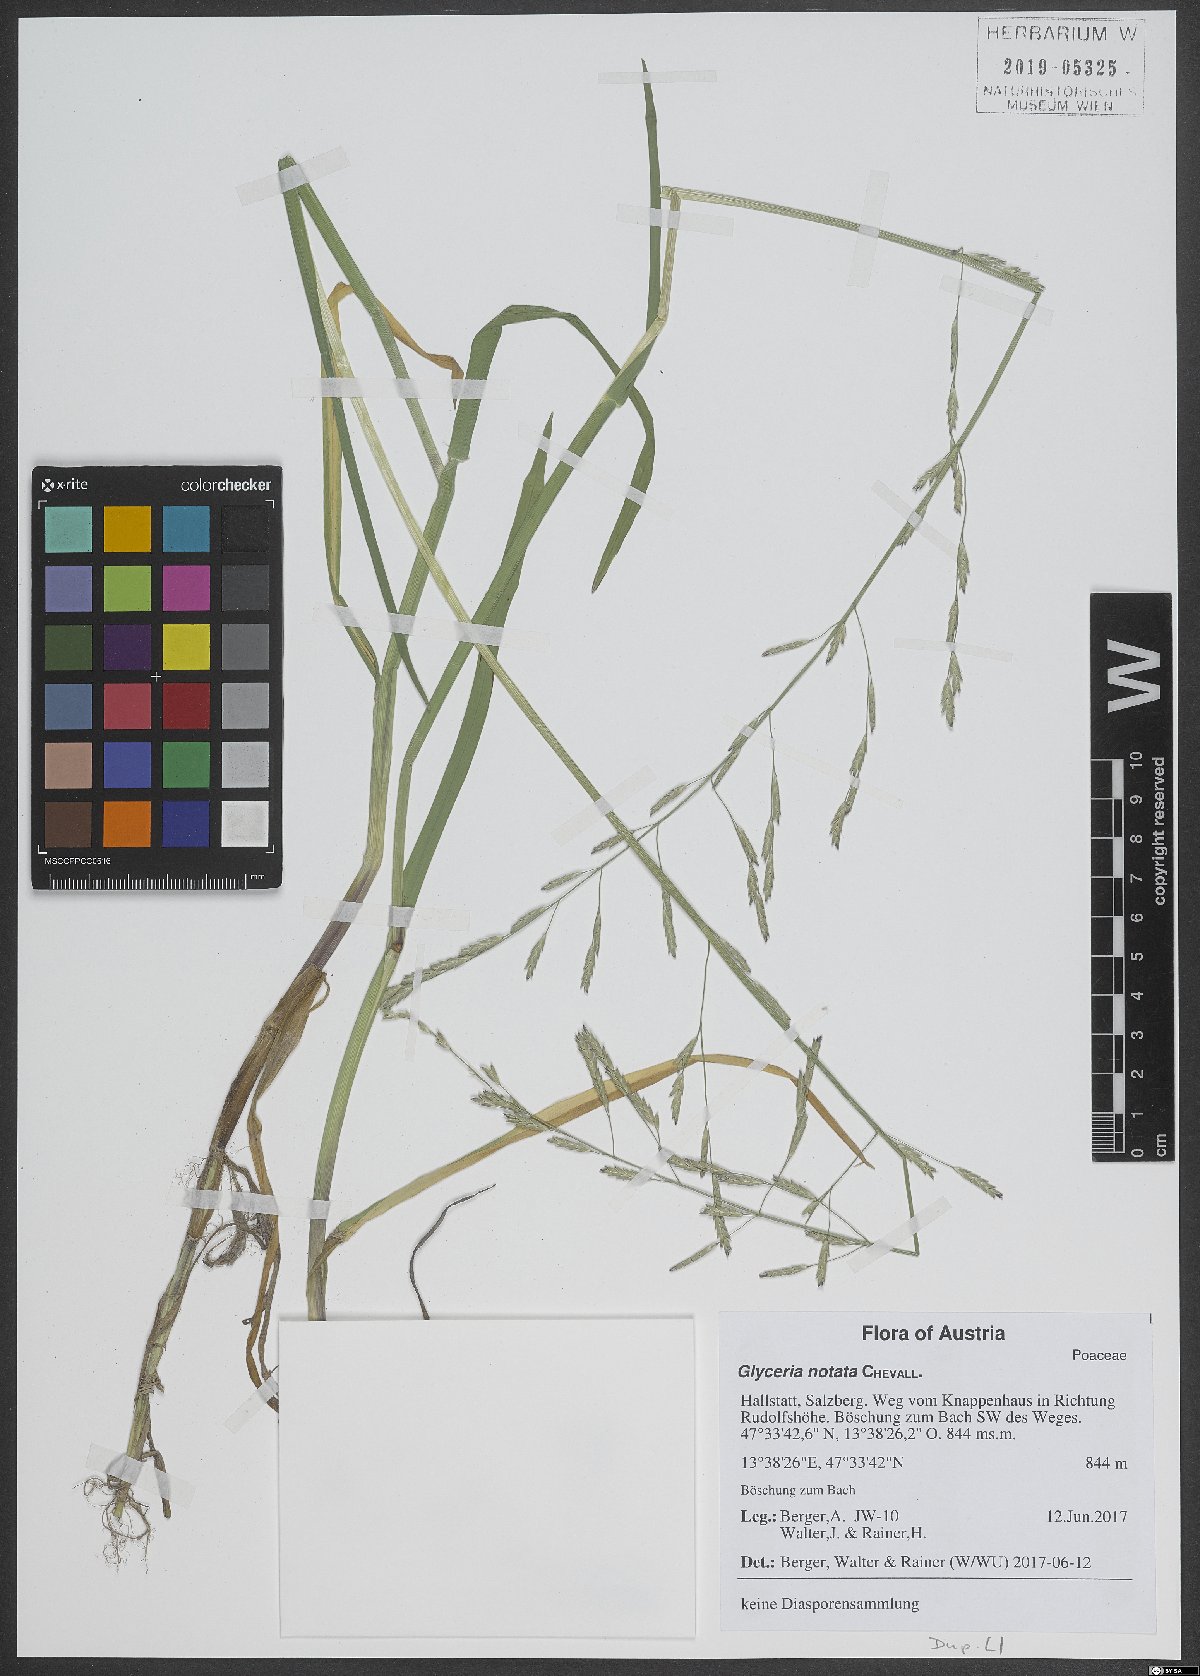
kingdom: Plantae
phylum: Tracheophyta
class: Liliopsida
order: Poales
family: Poaceae
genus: Glyceria
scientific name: Glyceria notata
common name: Plicate sweet-grass
